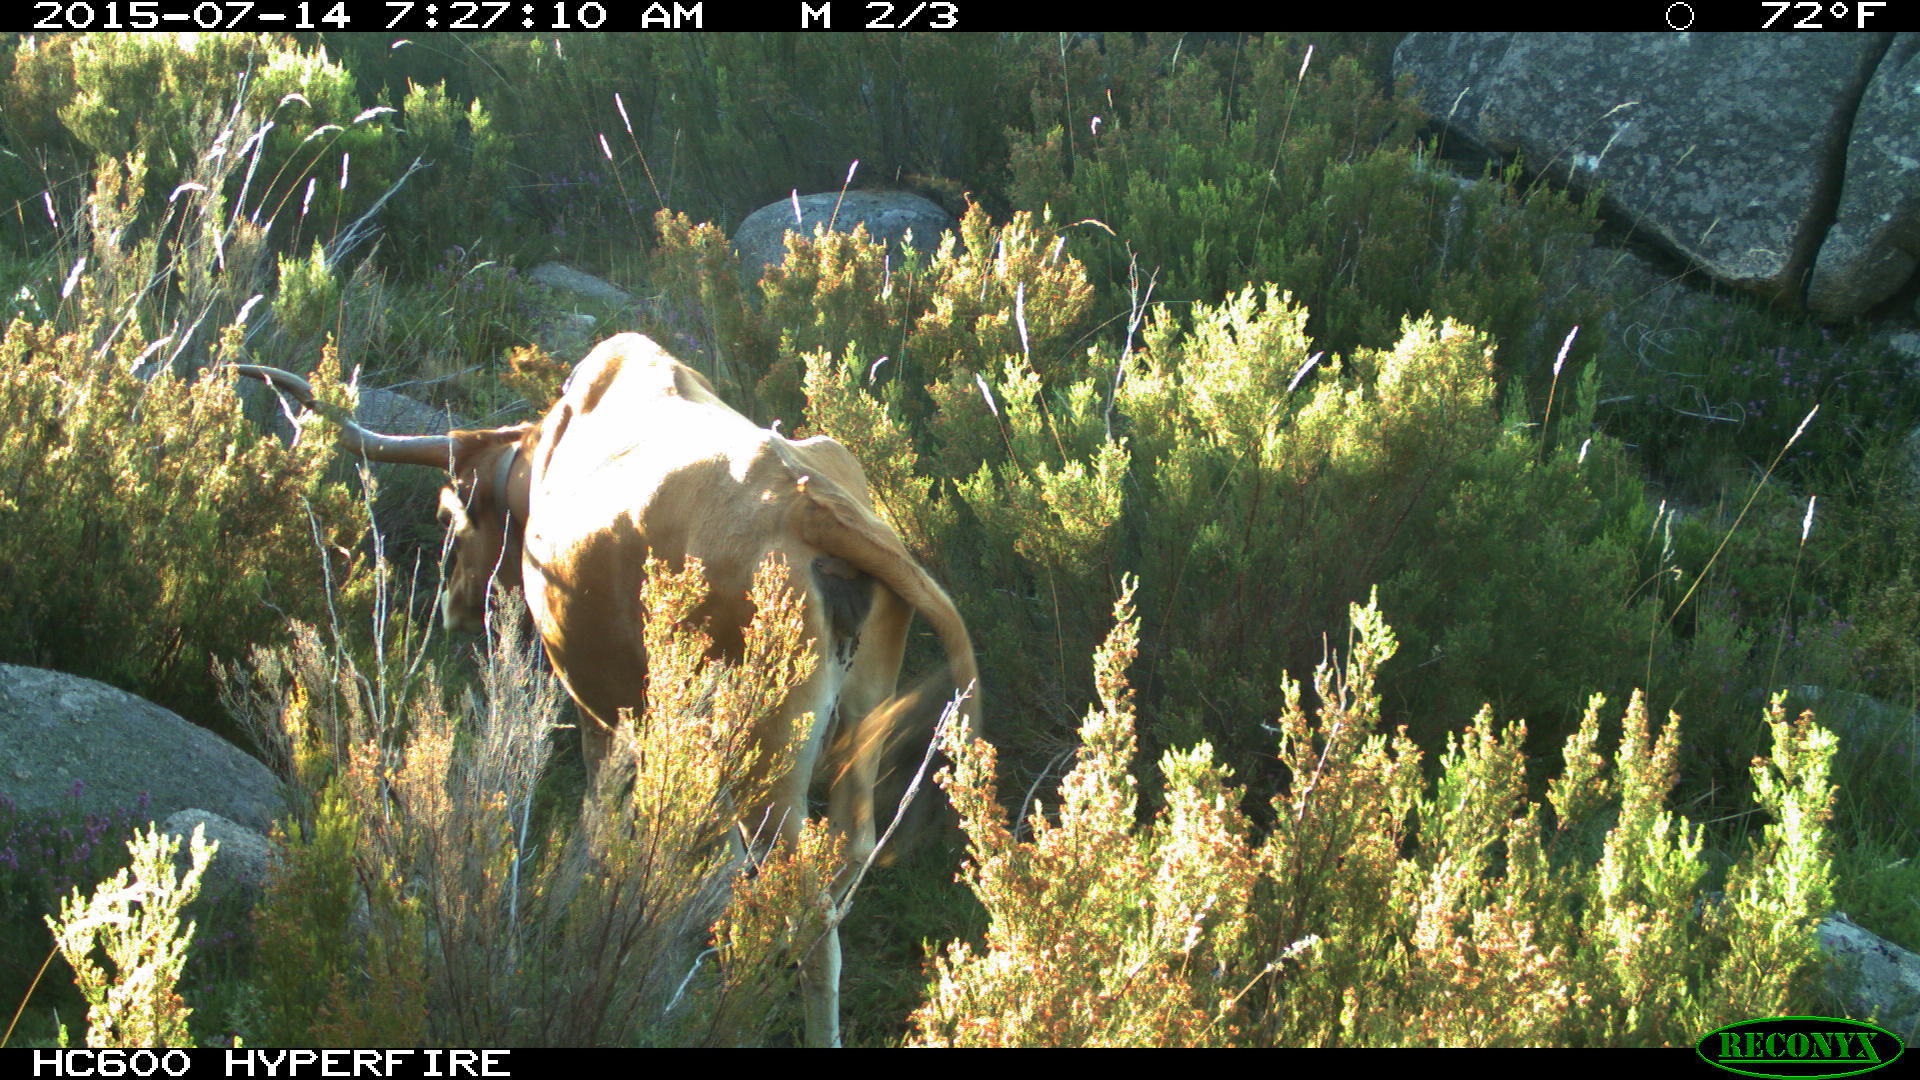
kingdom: Animalia
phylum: Chordata
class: Mammalia
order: Artiodactyla
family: Bovidae
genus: Bos
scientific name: Bos taurus
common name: Domesticated cattle
